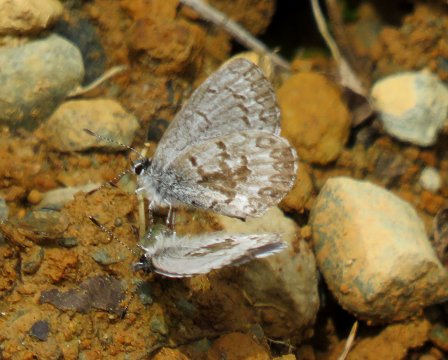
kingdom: Animalia
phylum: Arthropoda
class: Insecta
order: Lepidoptera
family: Lycaenidae
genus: Celastrina
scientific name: Celastrina lucia
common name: Northern Spring Azure
